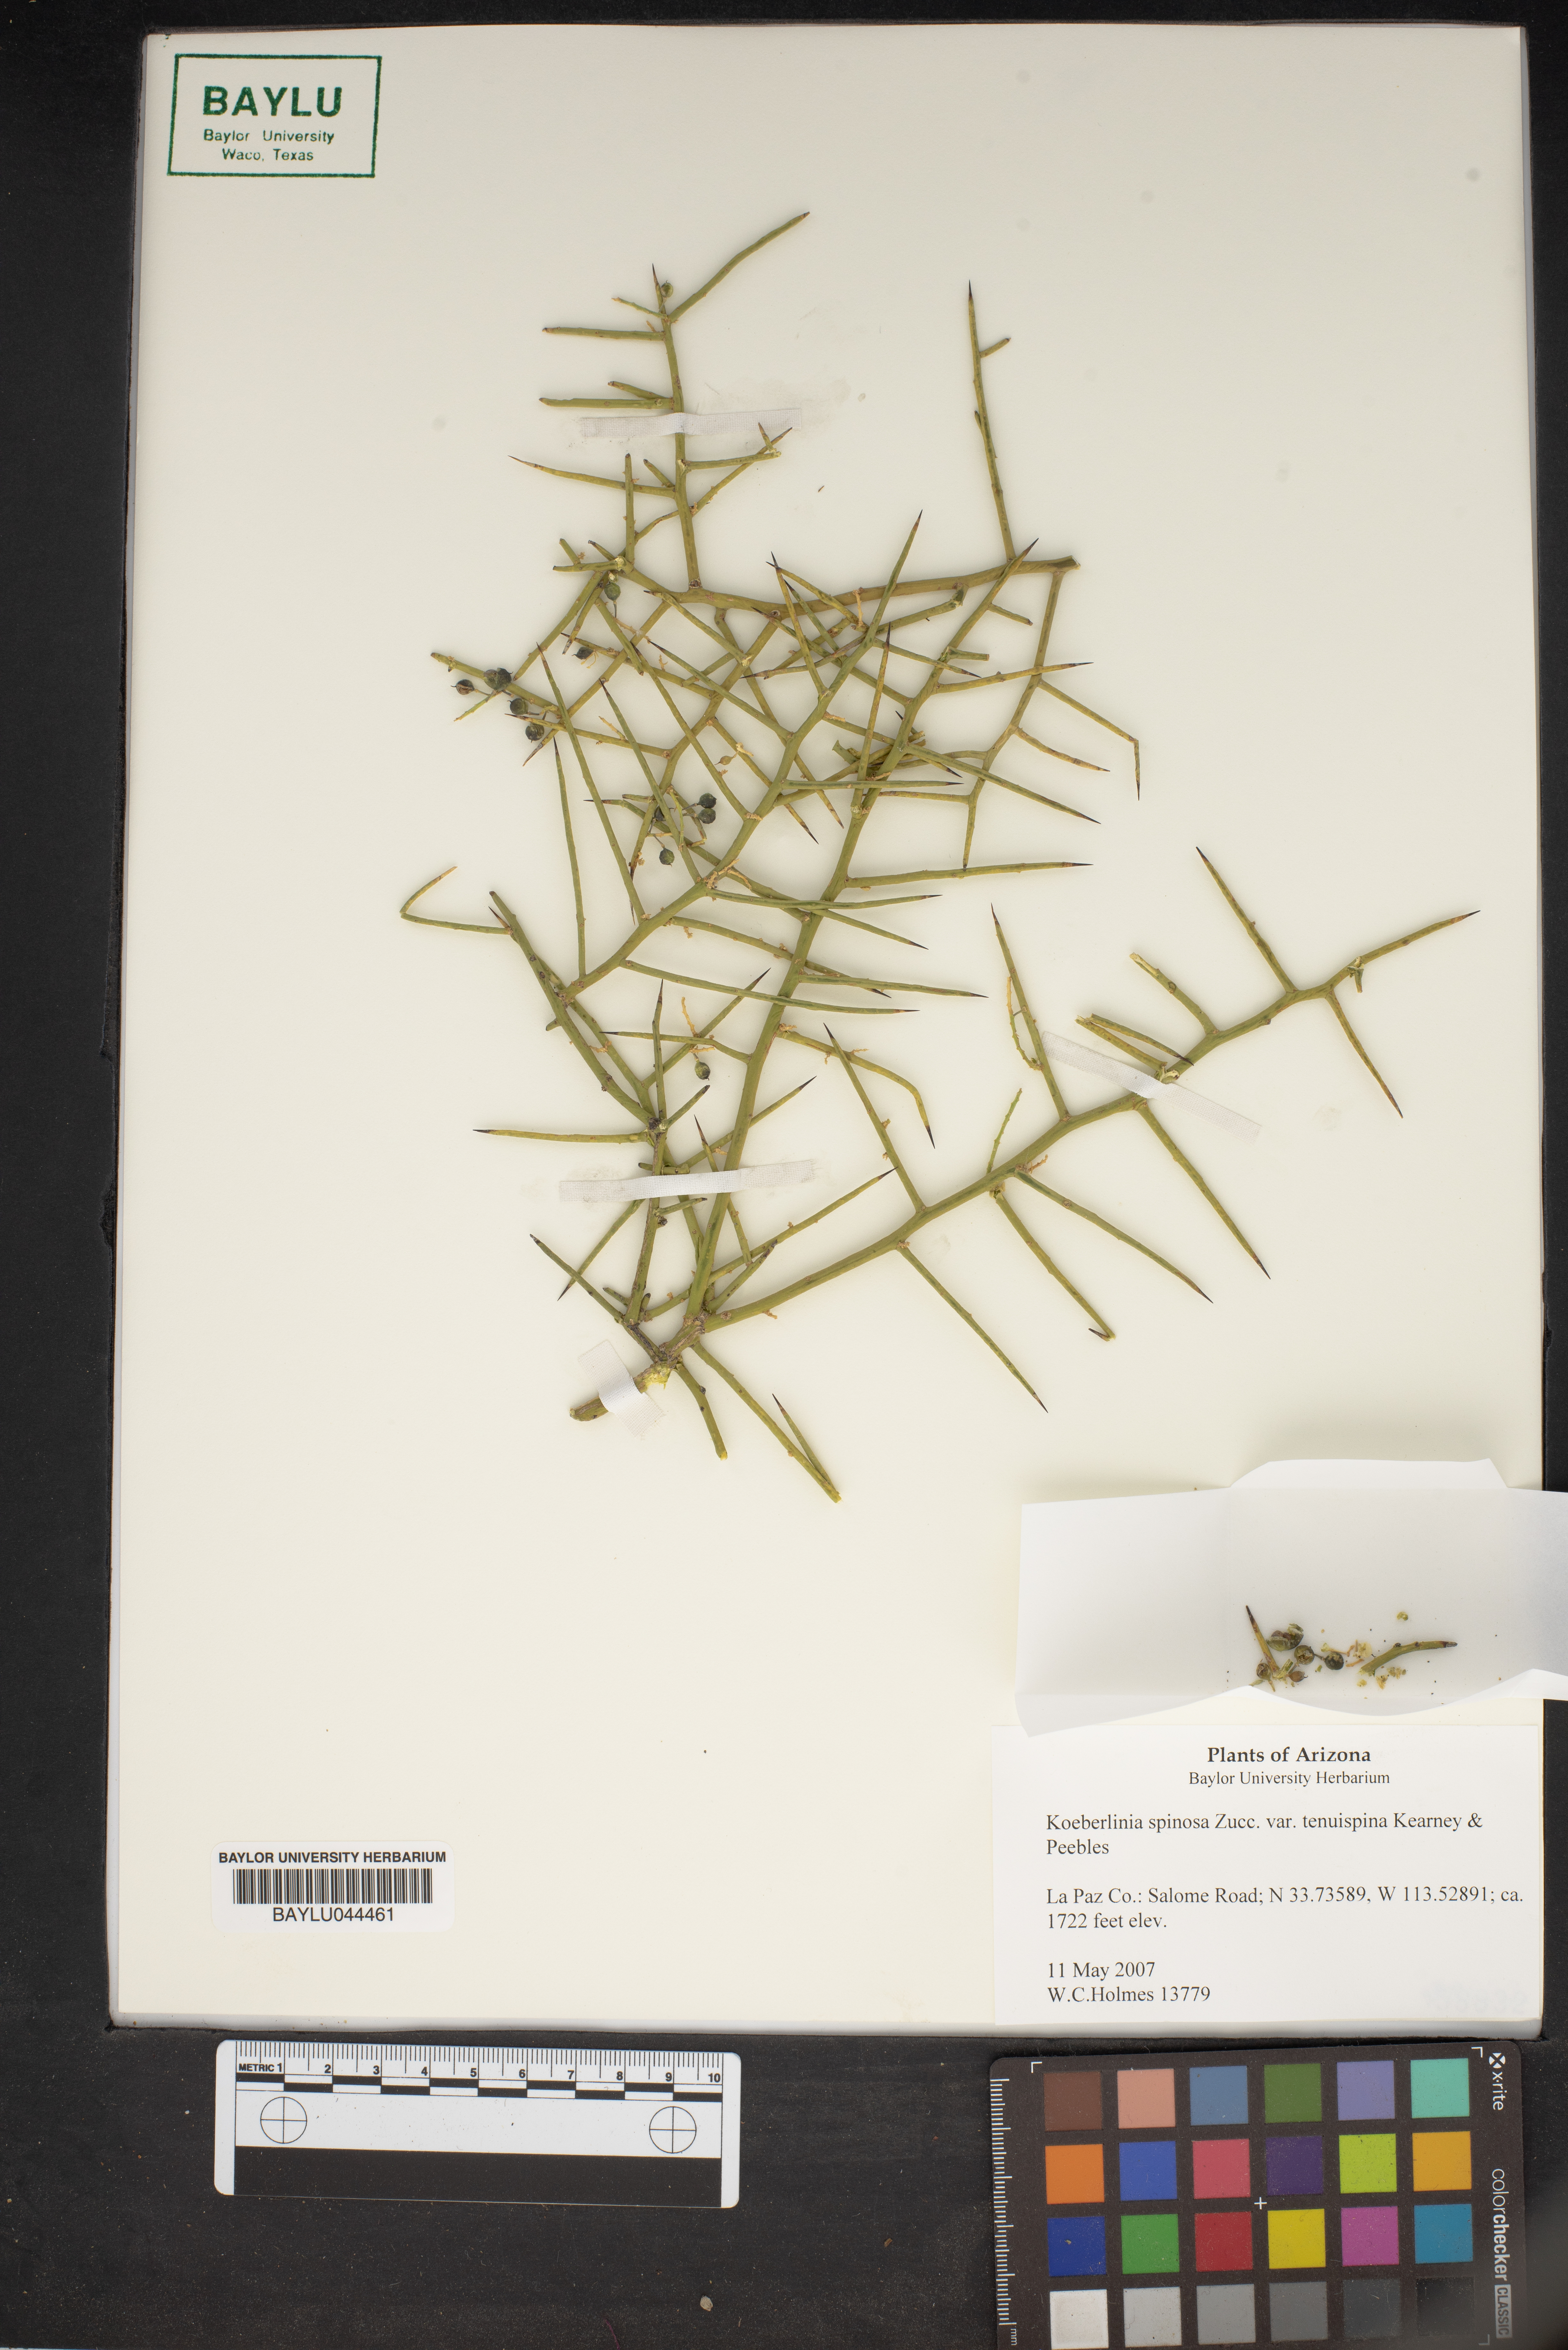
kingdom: Plantae
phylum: Tracheophyta
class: Magnoliopsida
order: Brassicales
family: Koeberliniaceae
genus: Koeberlinia
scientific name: Koeberlinia spinosa
